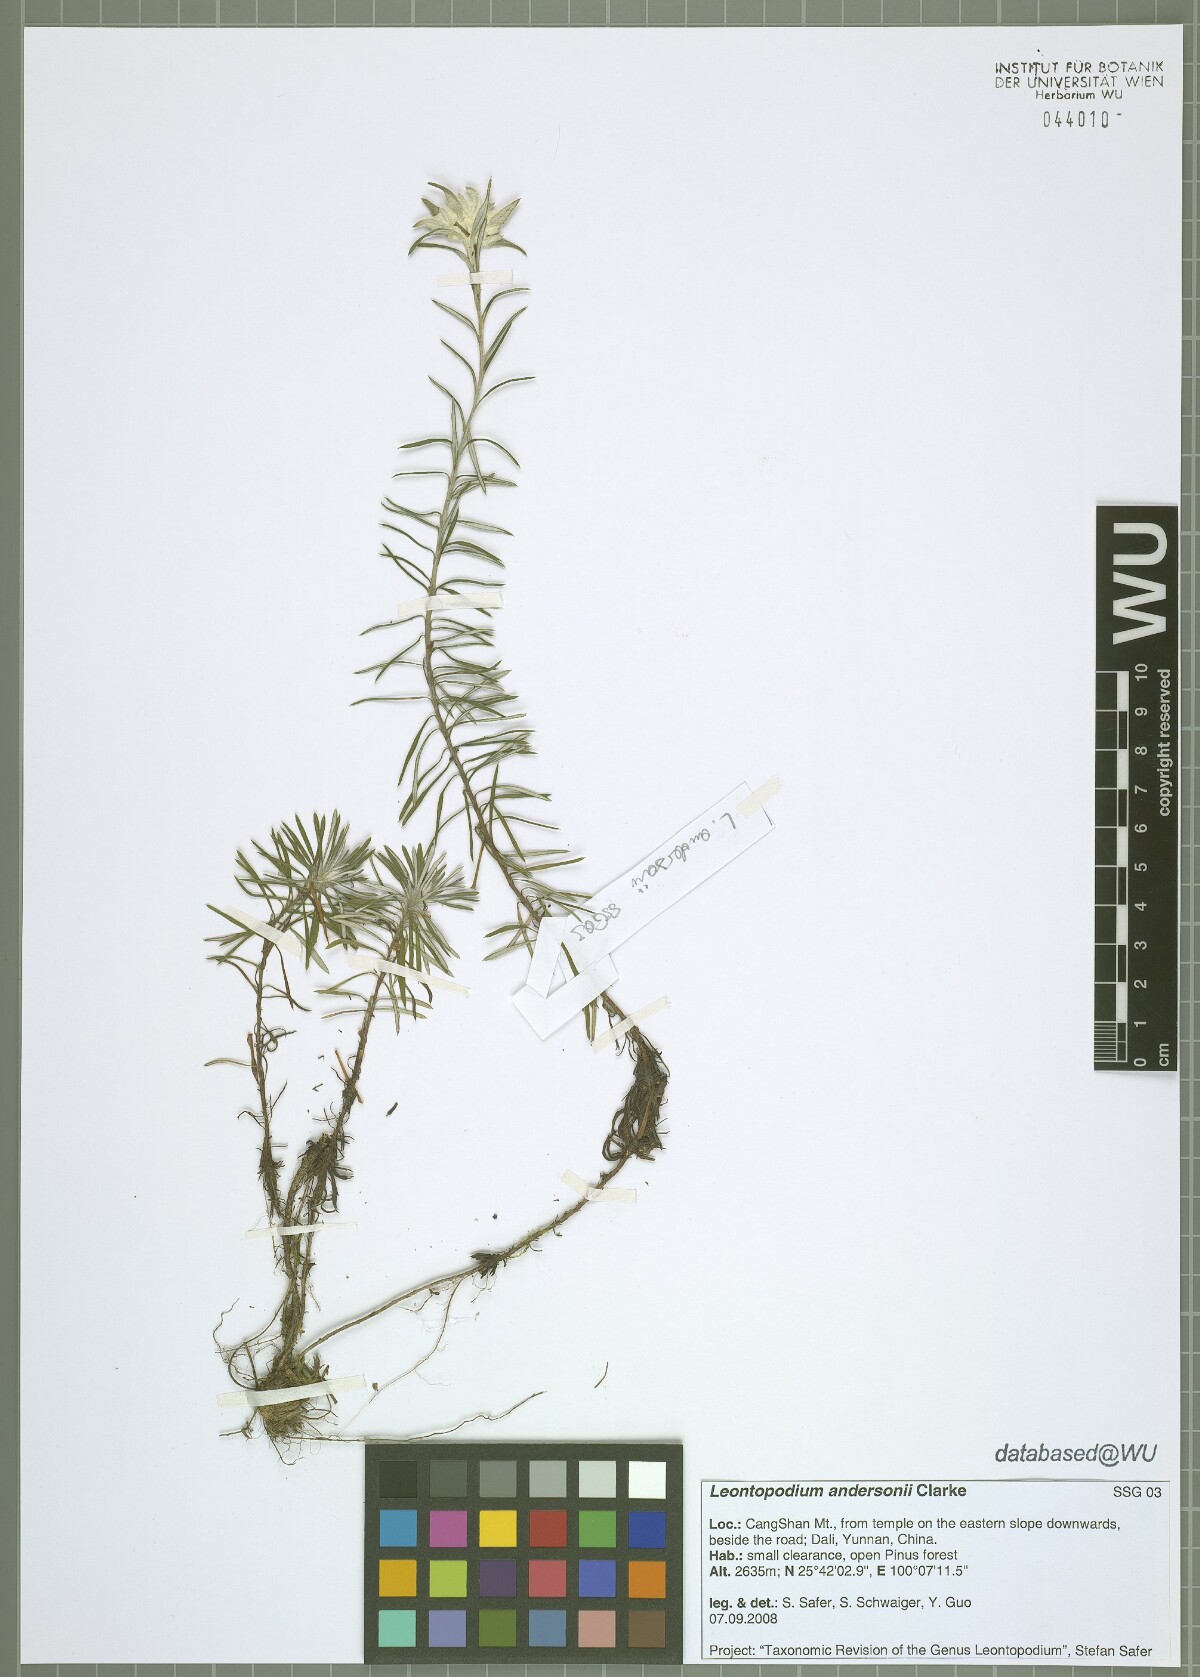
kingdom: Plantae
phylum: Tracheophyta
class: Magnoliopsida
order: Asterales
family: Asteraceae
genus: Leontopodium
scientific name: Leontopodium andersonii
